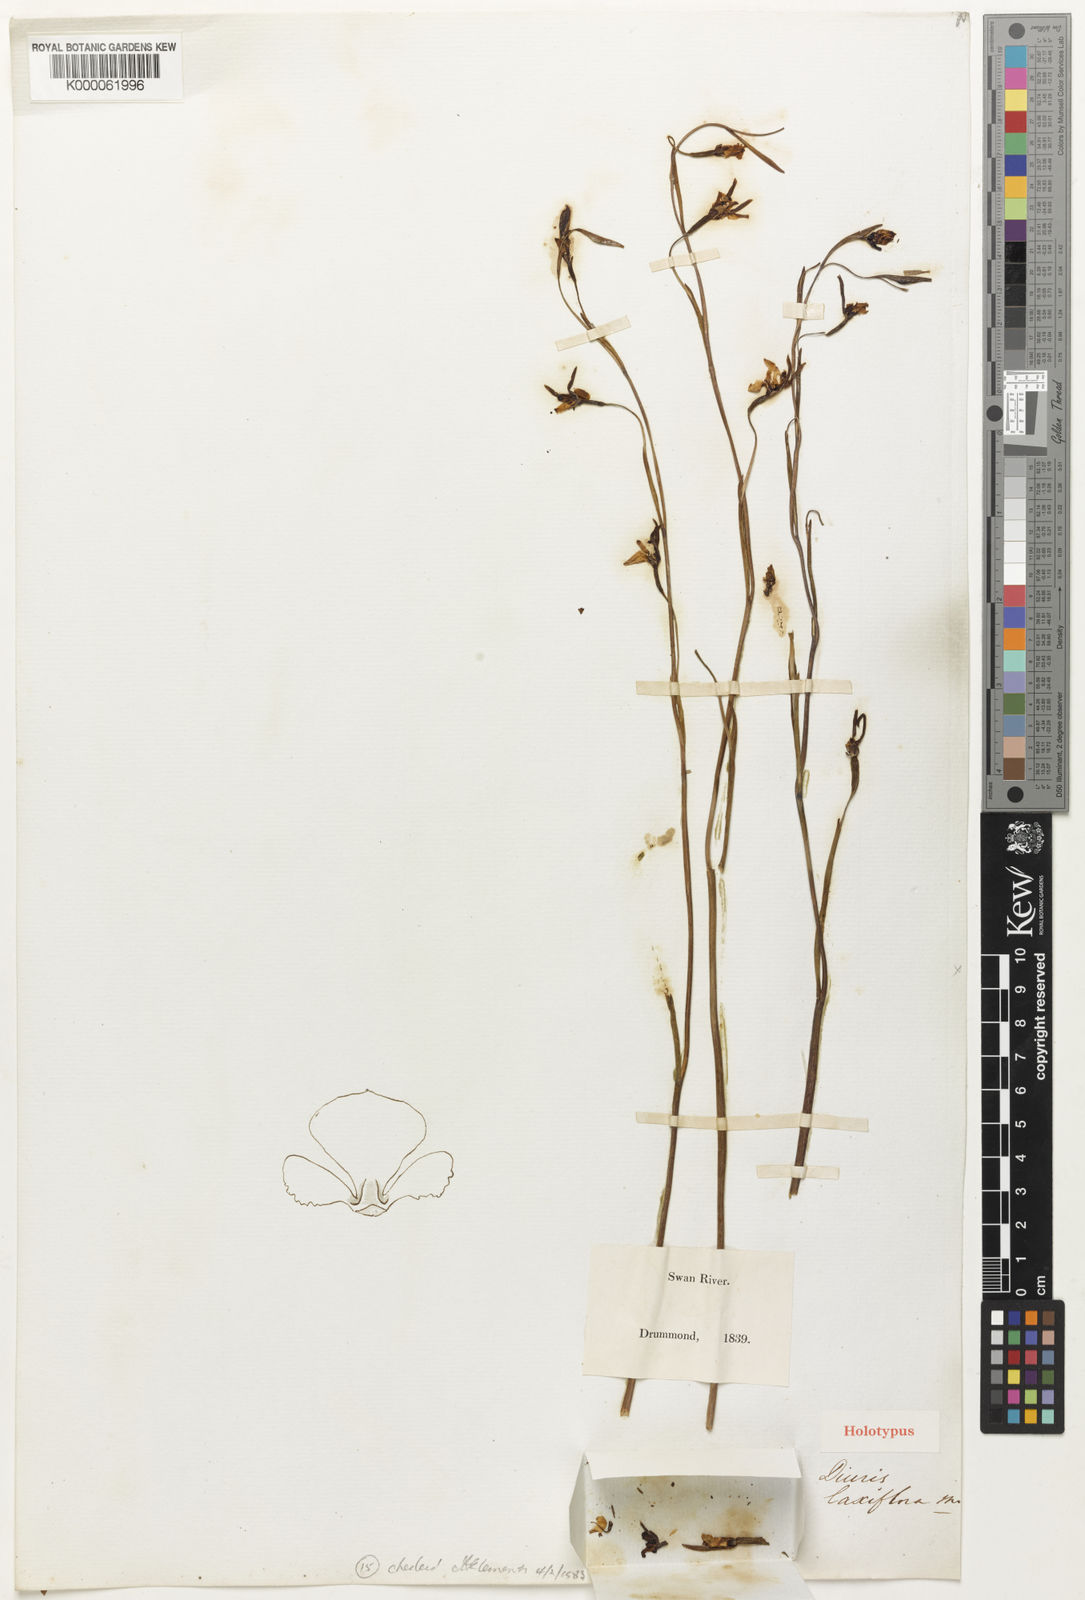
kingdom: Plantae
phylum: Tracheophyta
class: Liliopsida
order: Asparagales
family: Orchidaceae
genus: Diuris
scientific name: Diuris laxiflora
